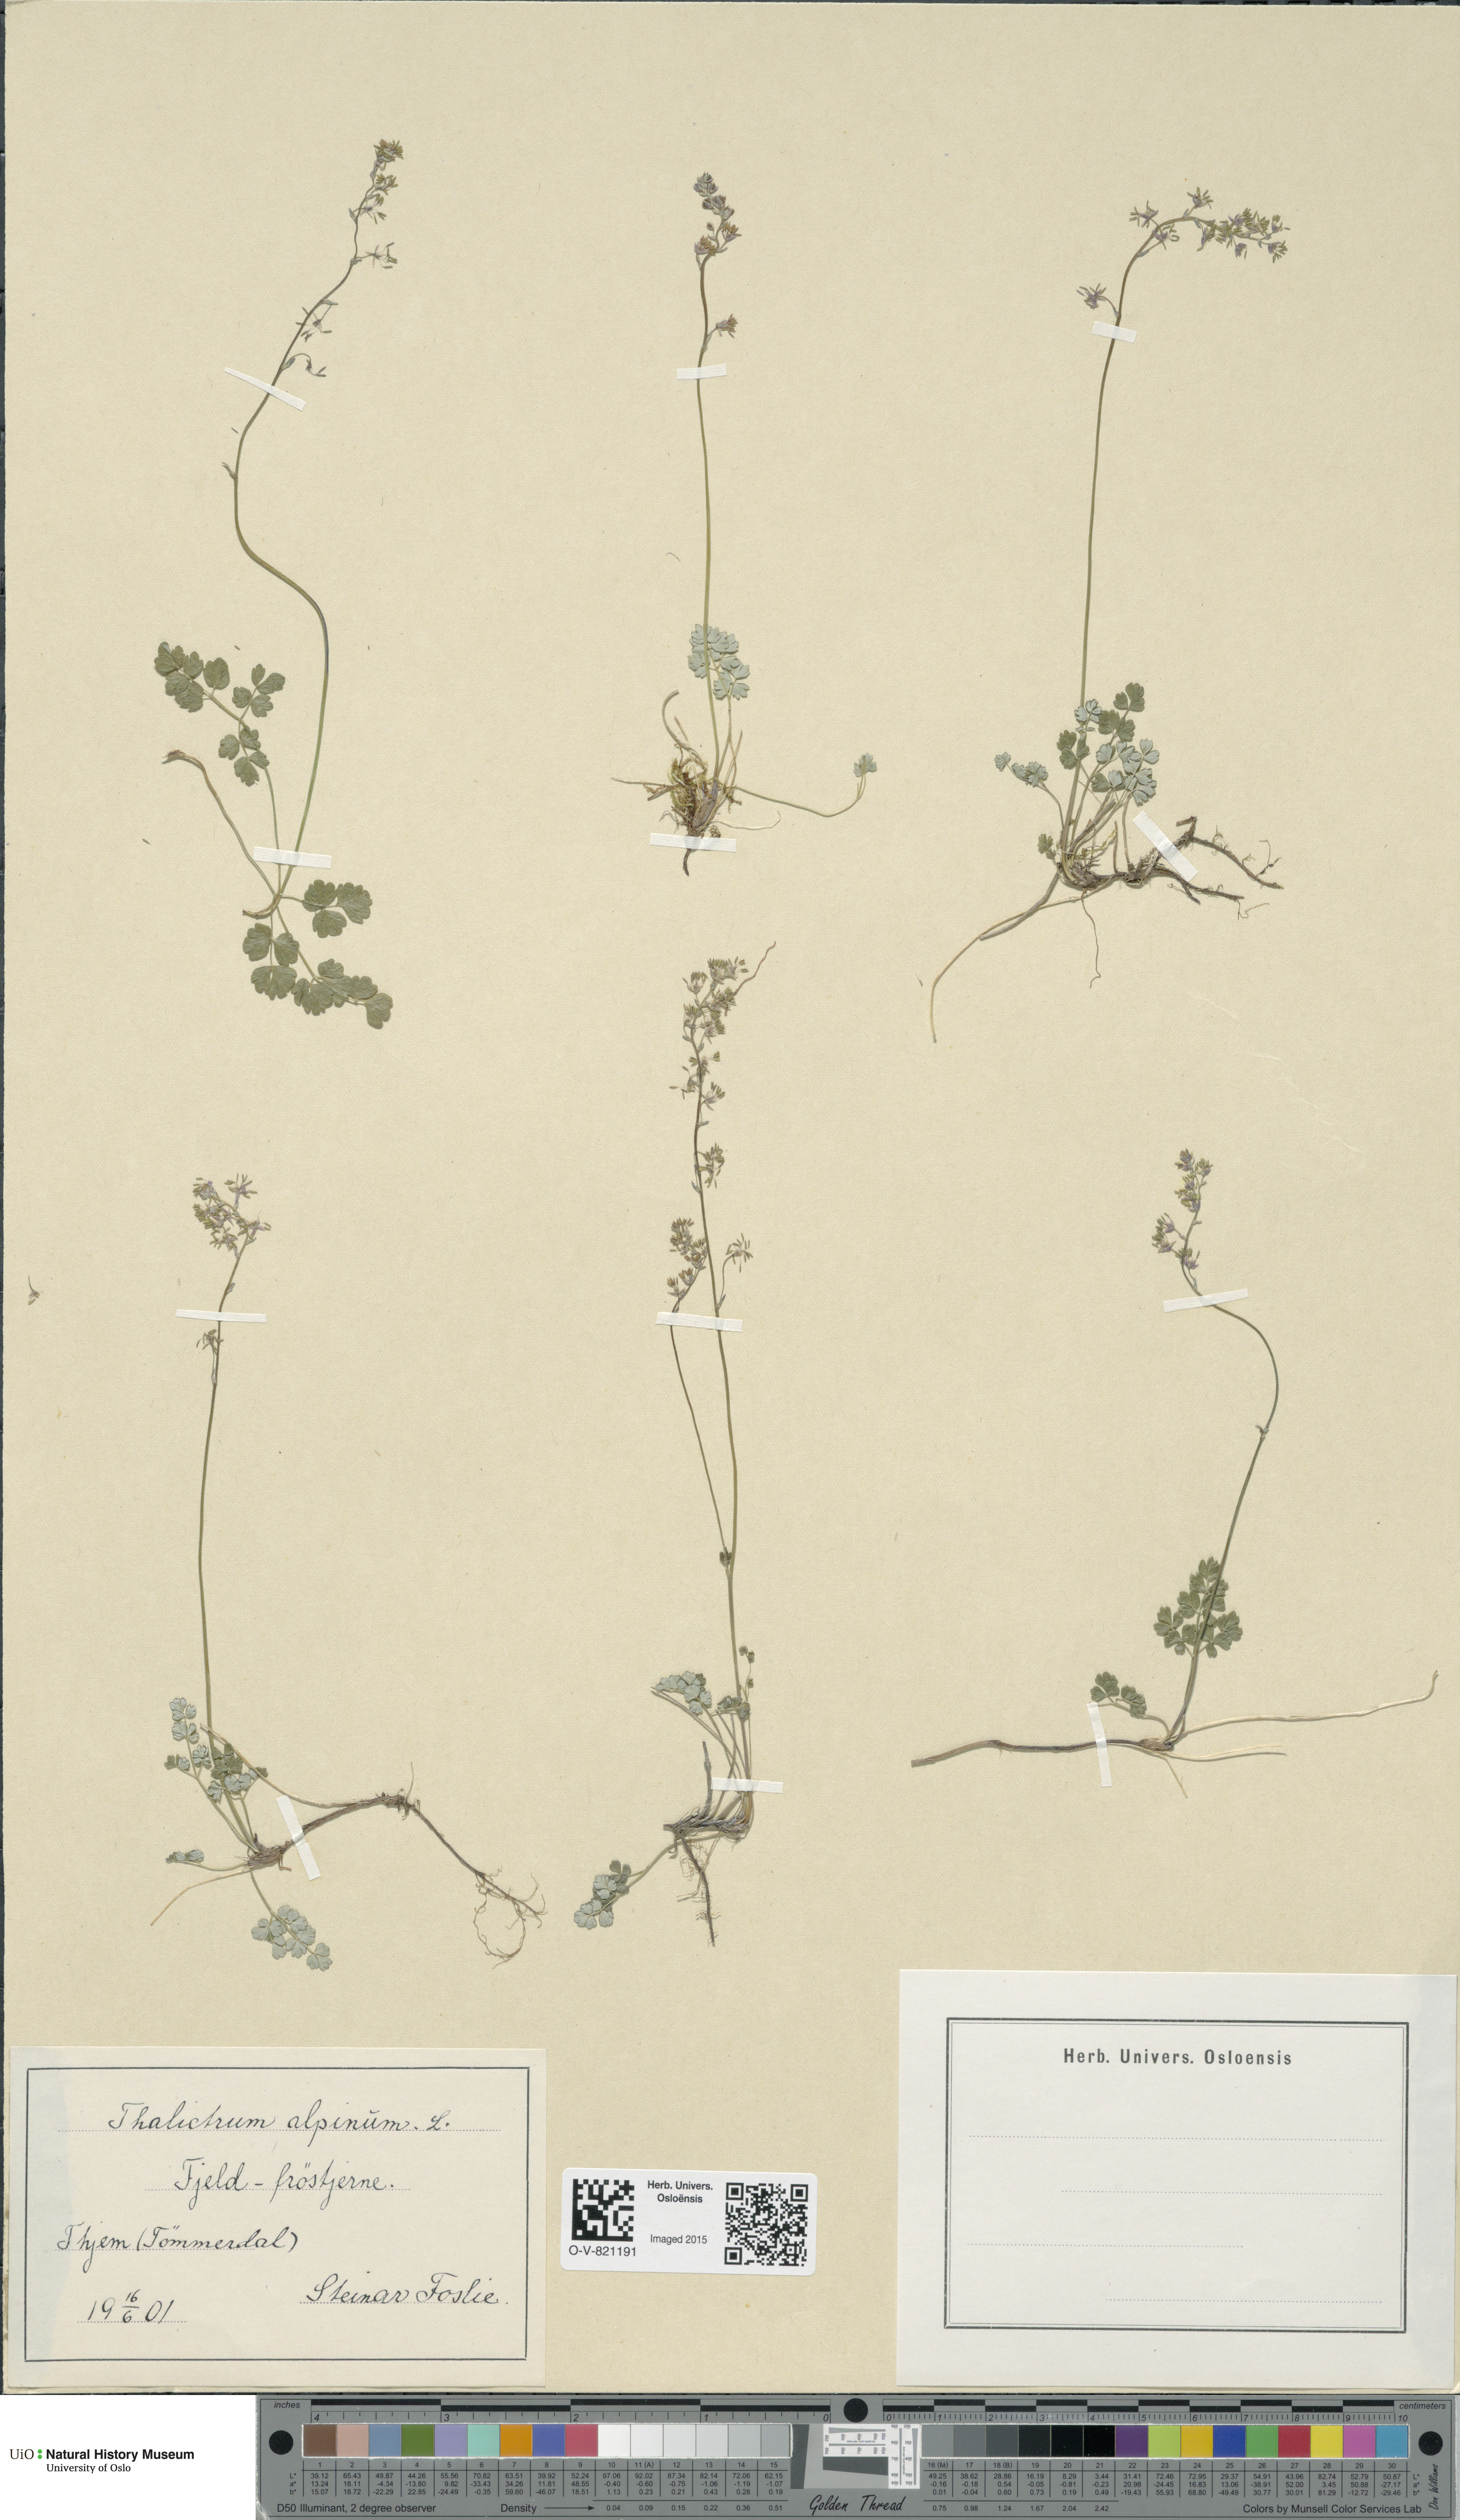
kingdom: Plantae
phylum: Tracheophyta
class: Magnoliopsida
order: Ranunculales
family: Ranunculaceae
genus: Thalictrum
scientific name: Thalictrum alpinum
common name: Alpine meadow-rue
